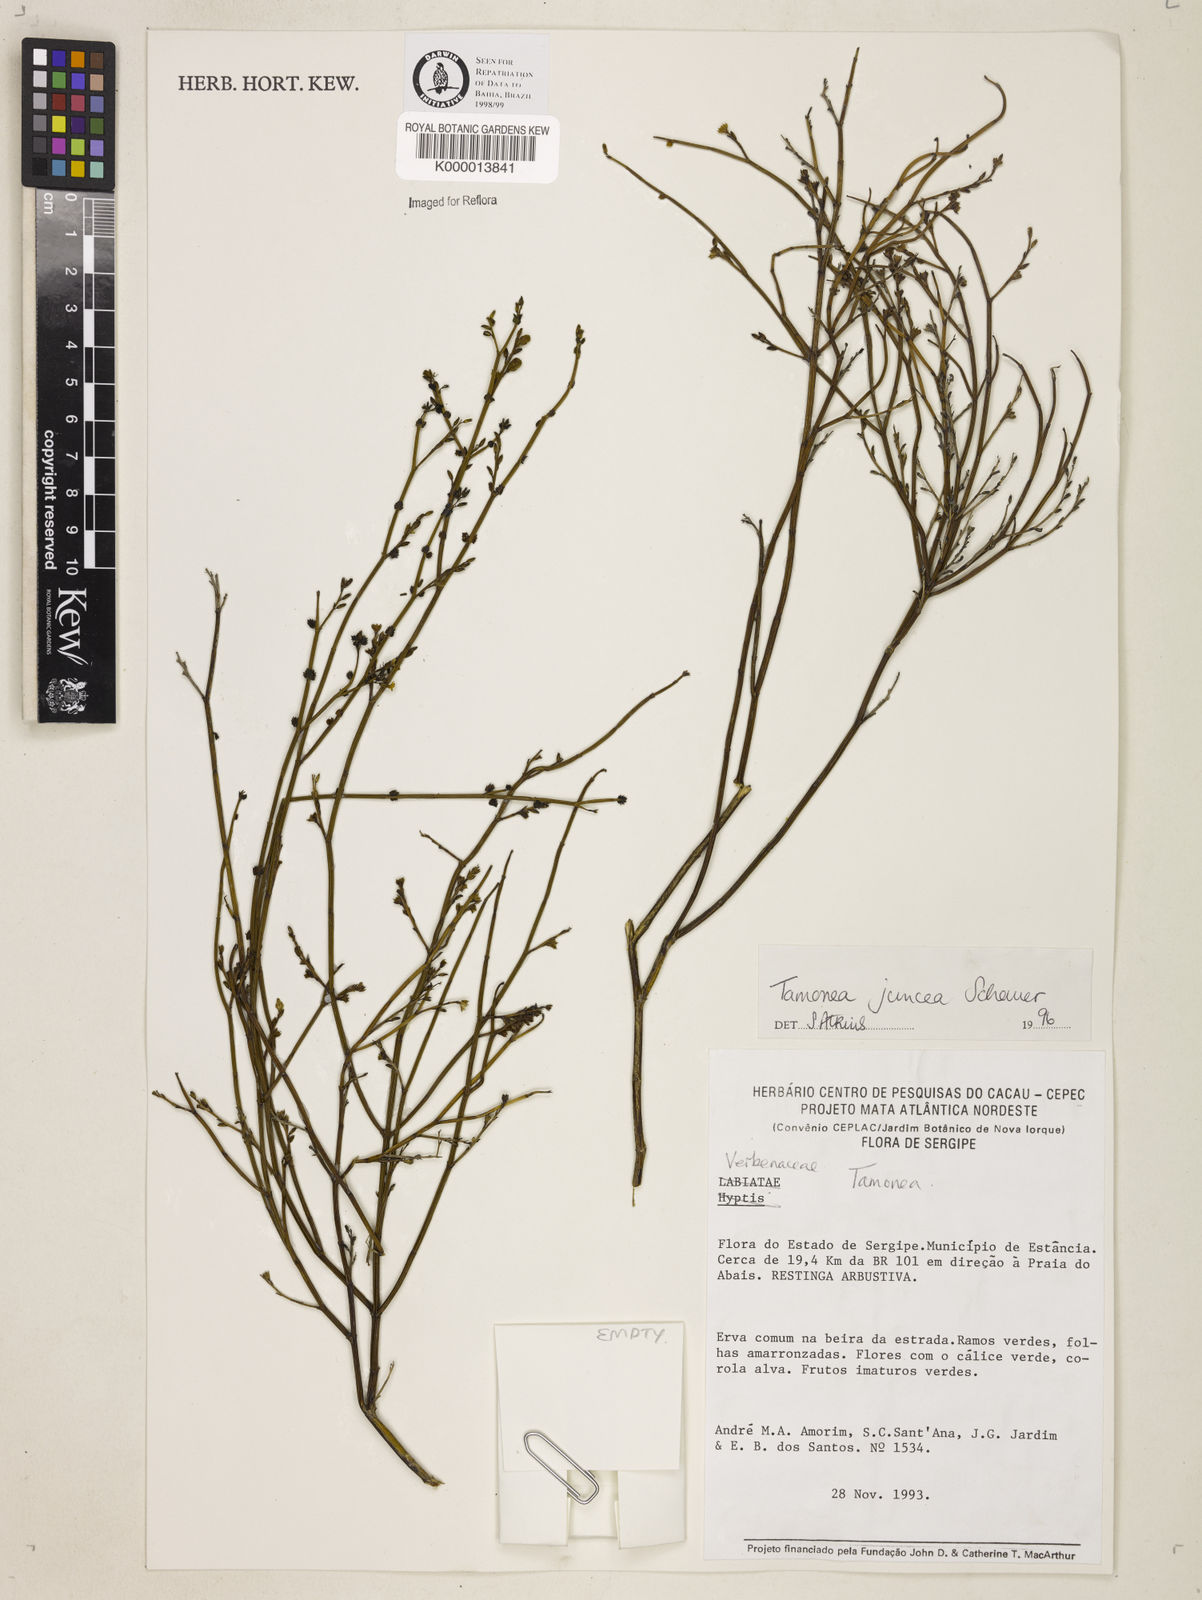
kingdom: Plantae
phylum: Tracheophyta
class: Magnoliopsida
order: Lamiales
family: Verbenaceae
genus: Tamonea
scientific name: Tamonea juncea
